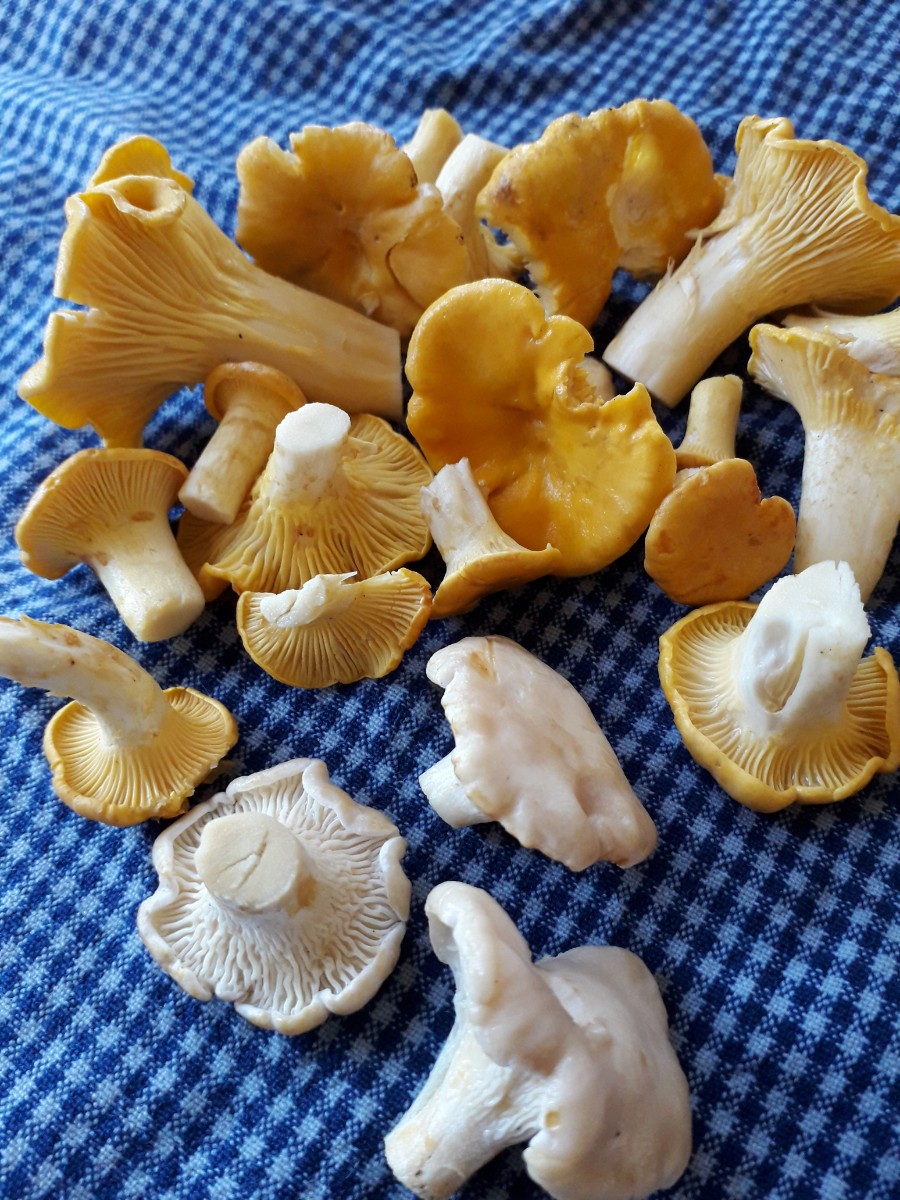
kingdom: Fungi
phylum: Basidiomycota
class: Agaricomycetes
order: Cantharellales
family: Hydnaceae
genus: Cantharellus
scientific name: Cantharellus cibarius
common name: almindelig kantarel
